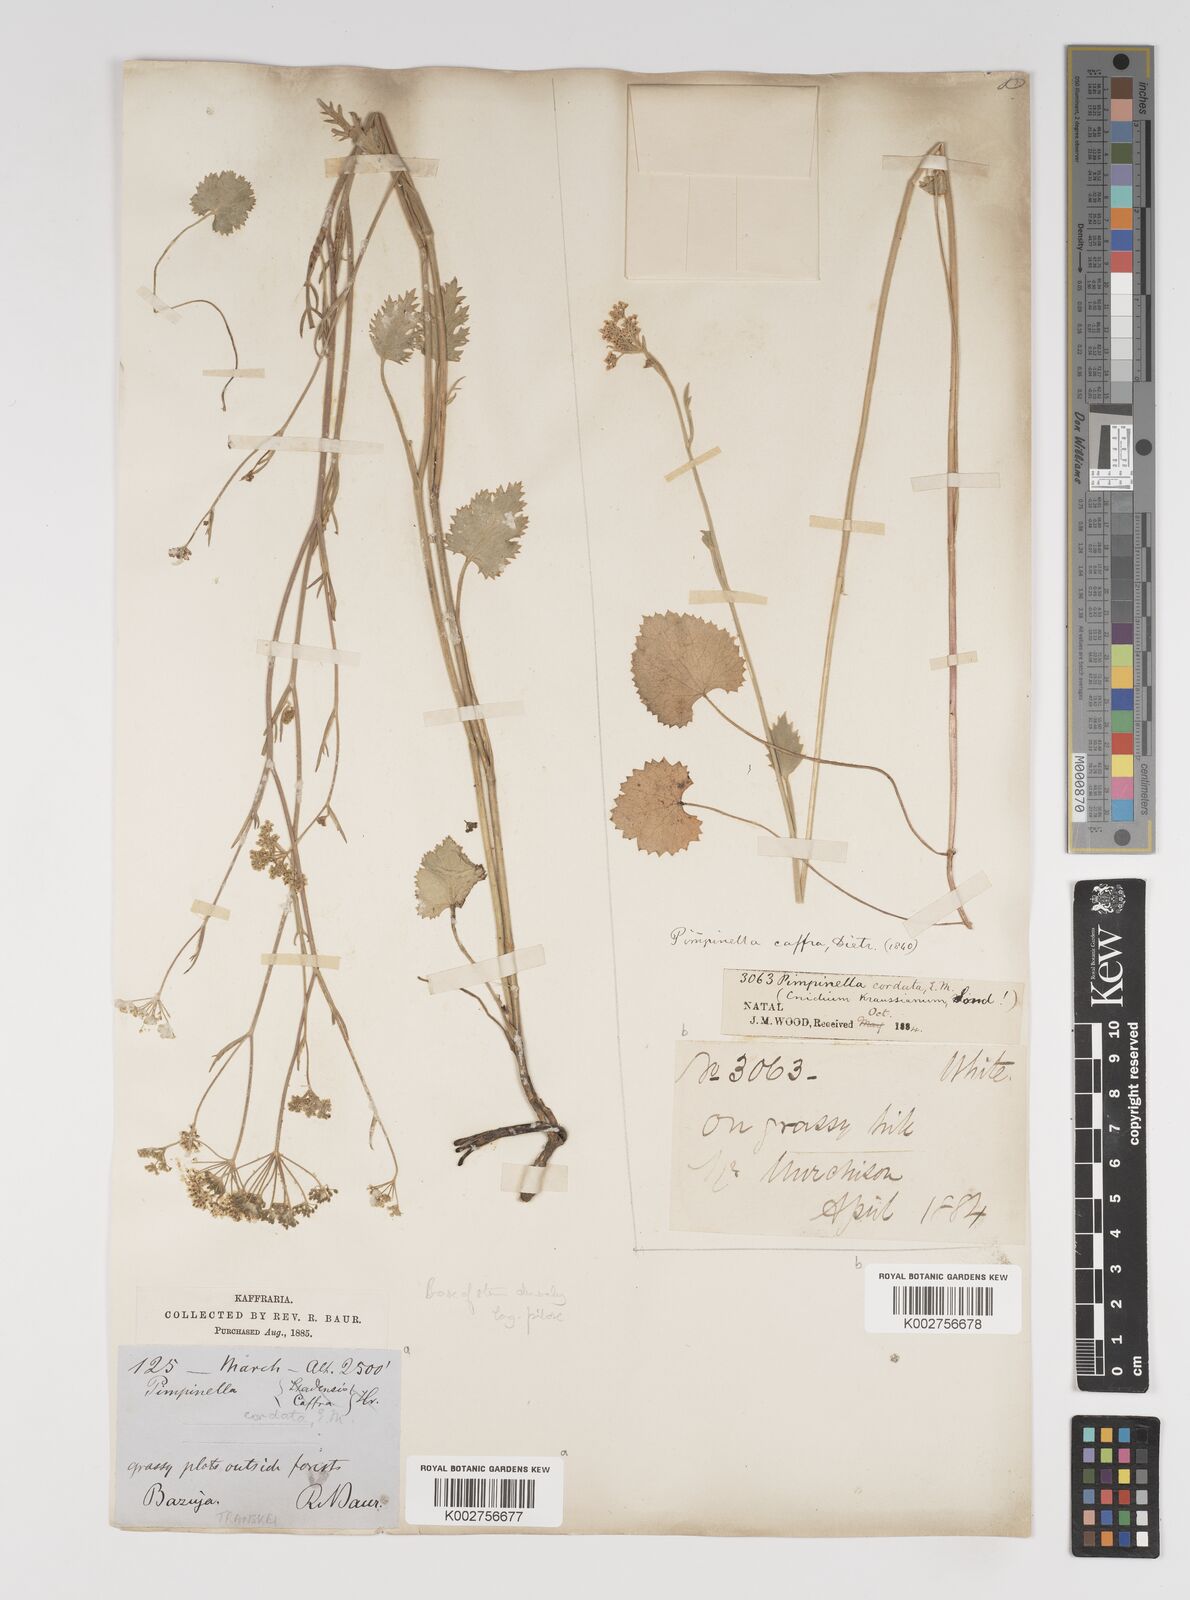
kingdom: Plantae
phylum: Tracheophyta
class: Magnoliopsida
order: Apiales
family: Apiaceae
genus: Pimpinella
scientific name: Pimpinella
